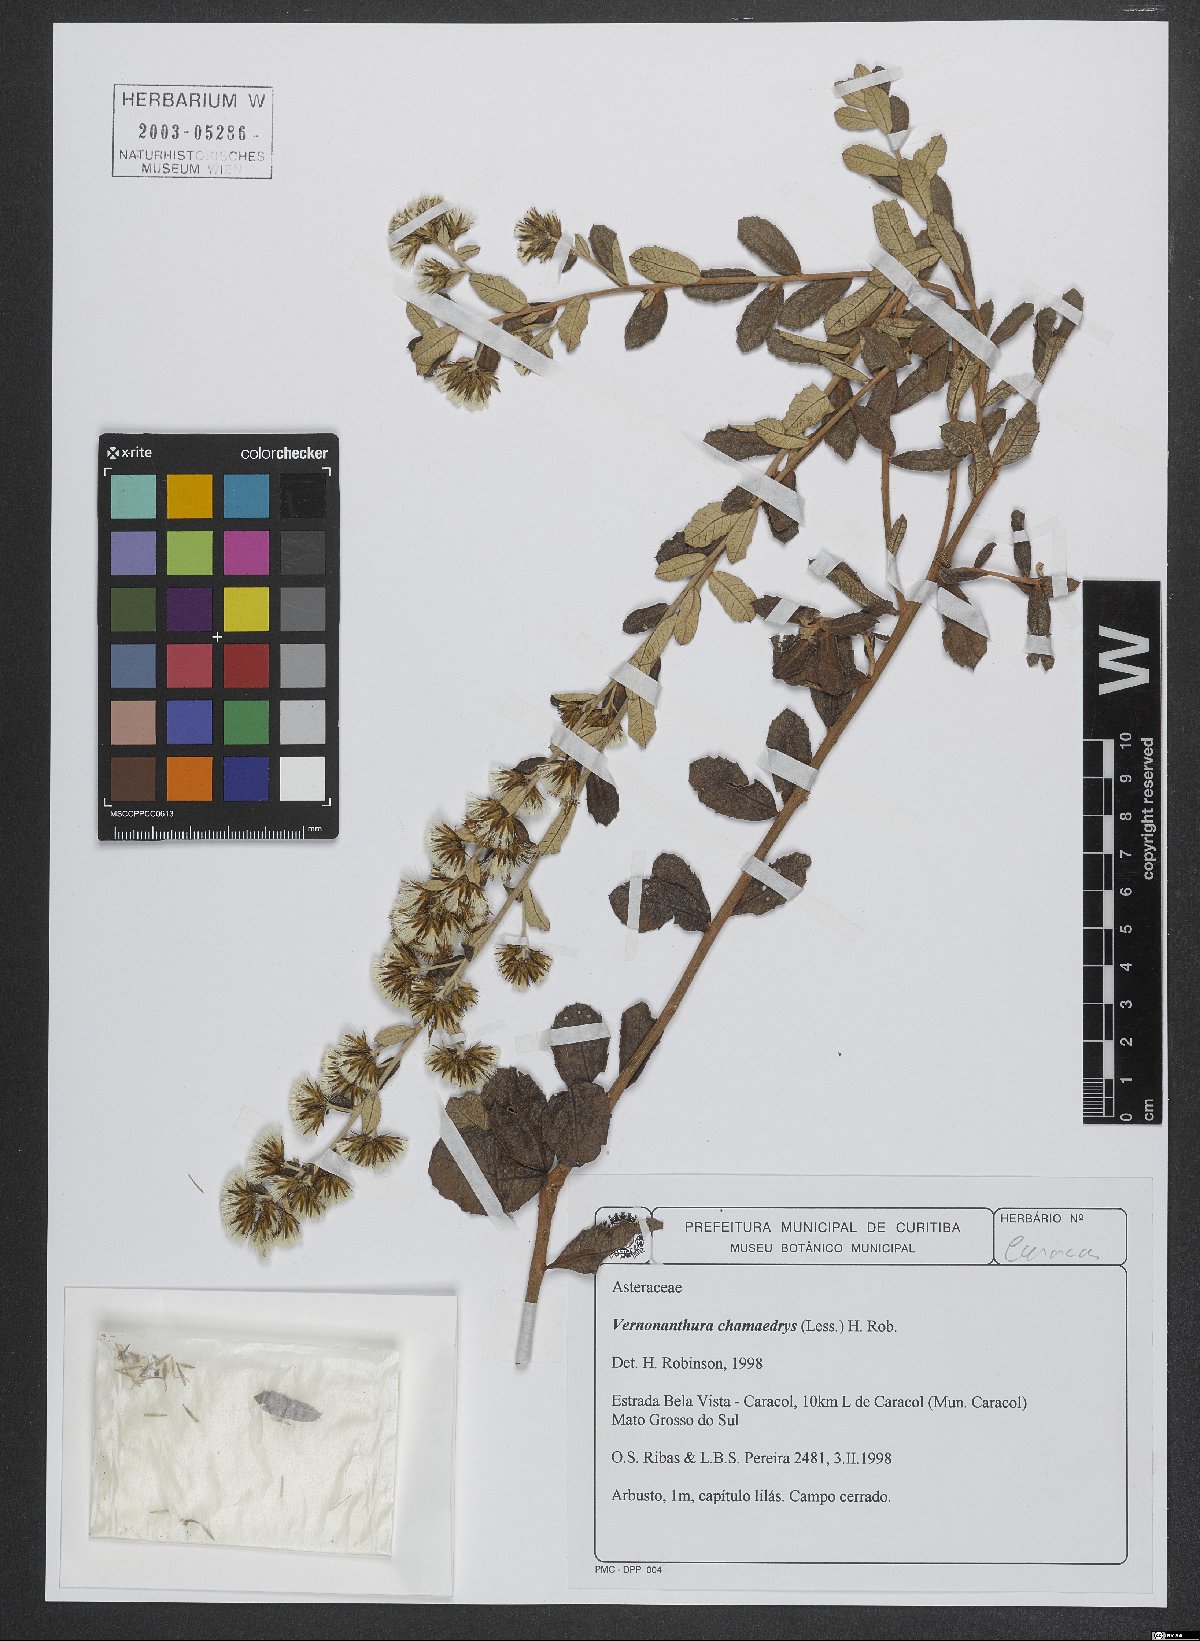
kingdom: Plantae
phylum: Tracheophyta
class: Magnoliopsida
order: Asterales
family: Asteraceae
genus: Vernonanthura
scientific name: Vernonanthura chamaedrys
